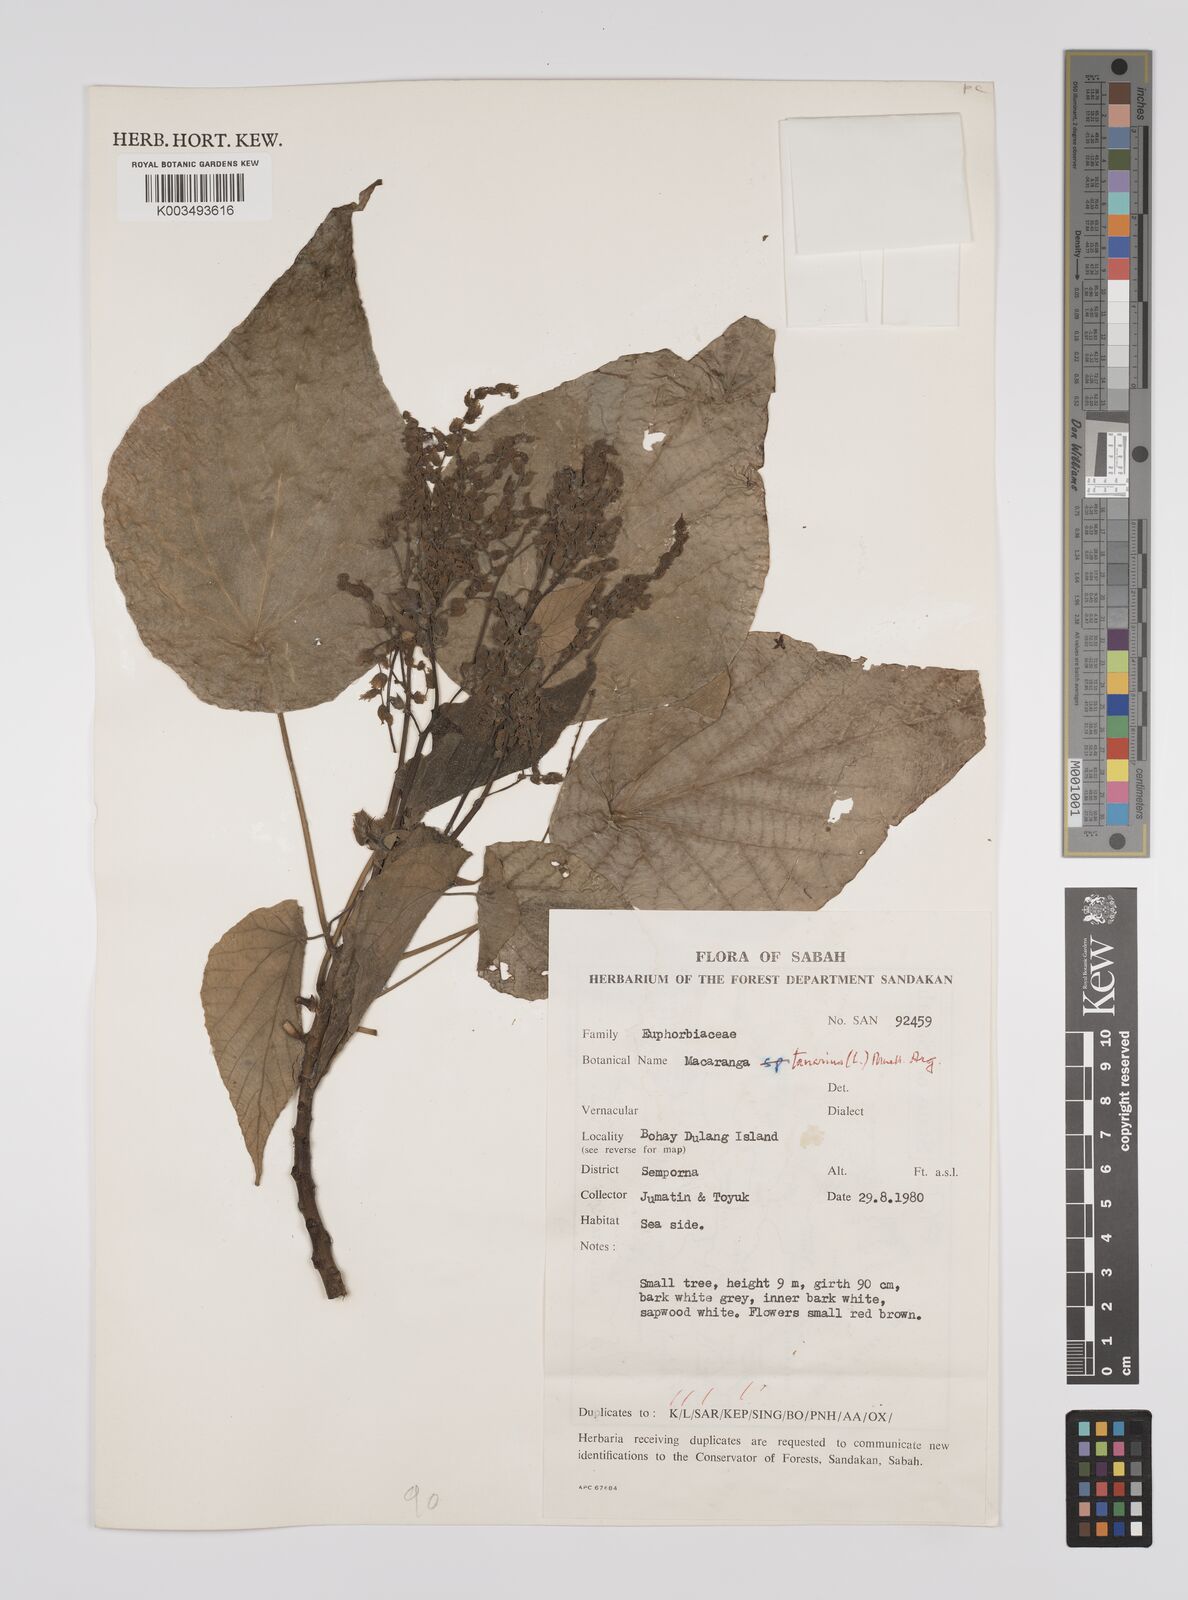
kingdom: Plantae
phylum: Tracheophyta
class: Magnoliopsida
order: Malpighiales
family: Euphorbiaceae
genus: Macaranga
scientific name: Macaranga tanarius
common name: Parasol leaf tree
